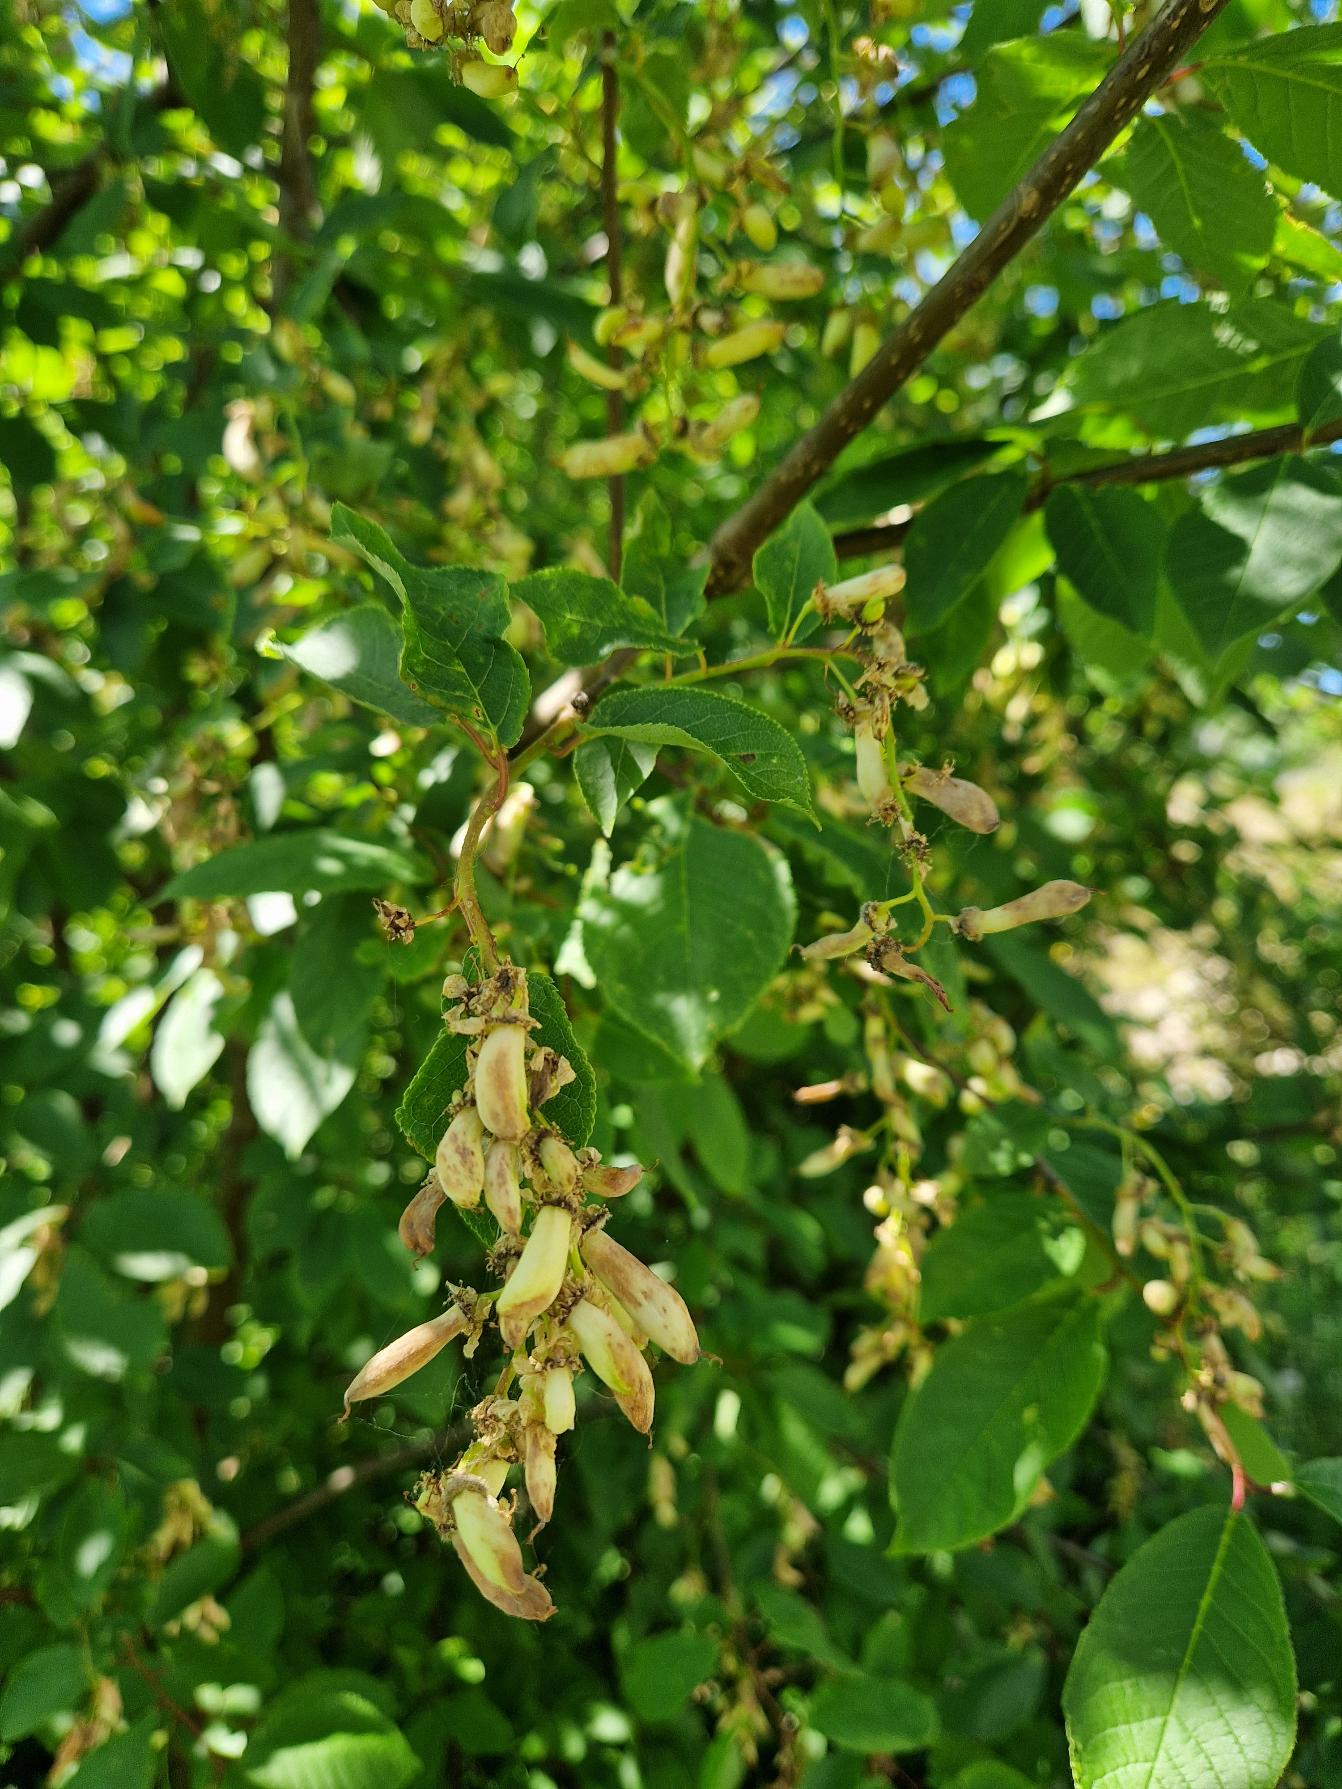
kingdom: Plantae
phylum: Tracheophyta
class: Magnoliopsida
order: Rosales
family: Rosaceae
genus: Prunus
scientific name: Prunus padus
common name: Almindelig hæg
